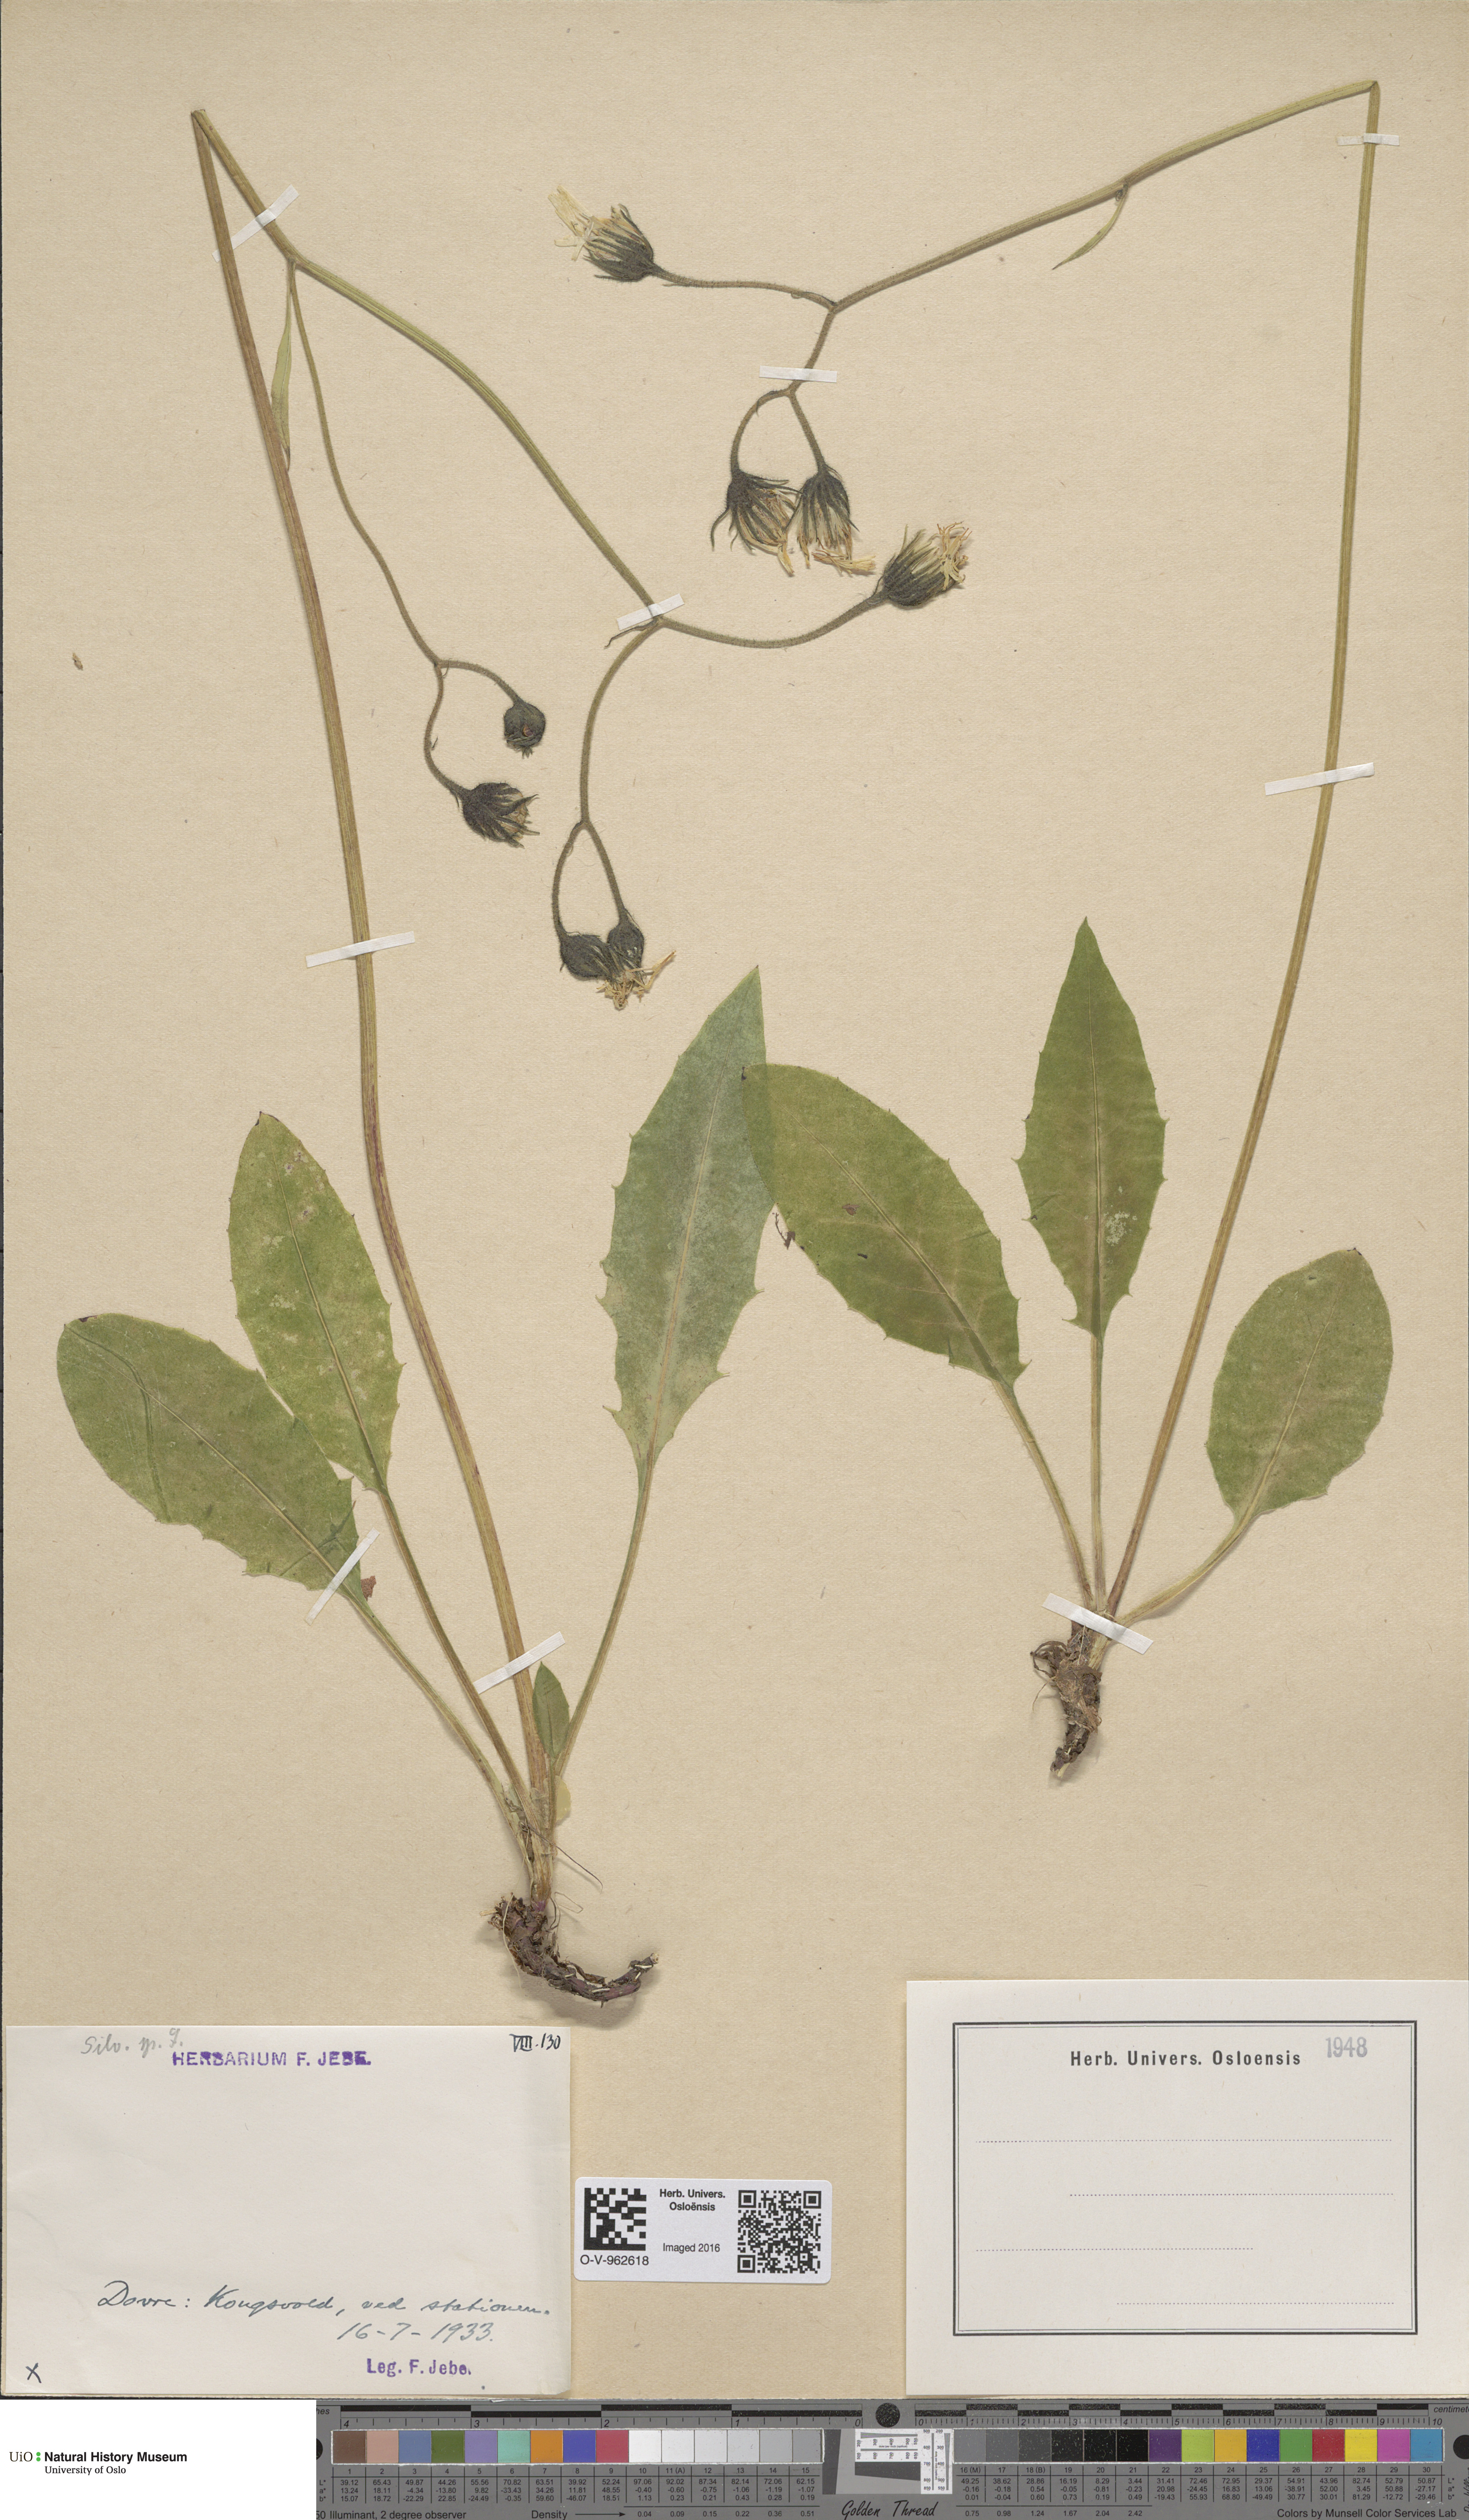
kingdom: Plantae
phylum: Tracheophyta
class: Magnoliopsida
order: Asterales
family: Asteraceae
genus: Hieracium
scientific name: Hieracium
